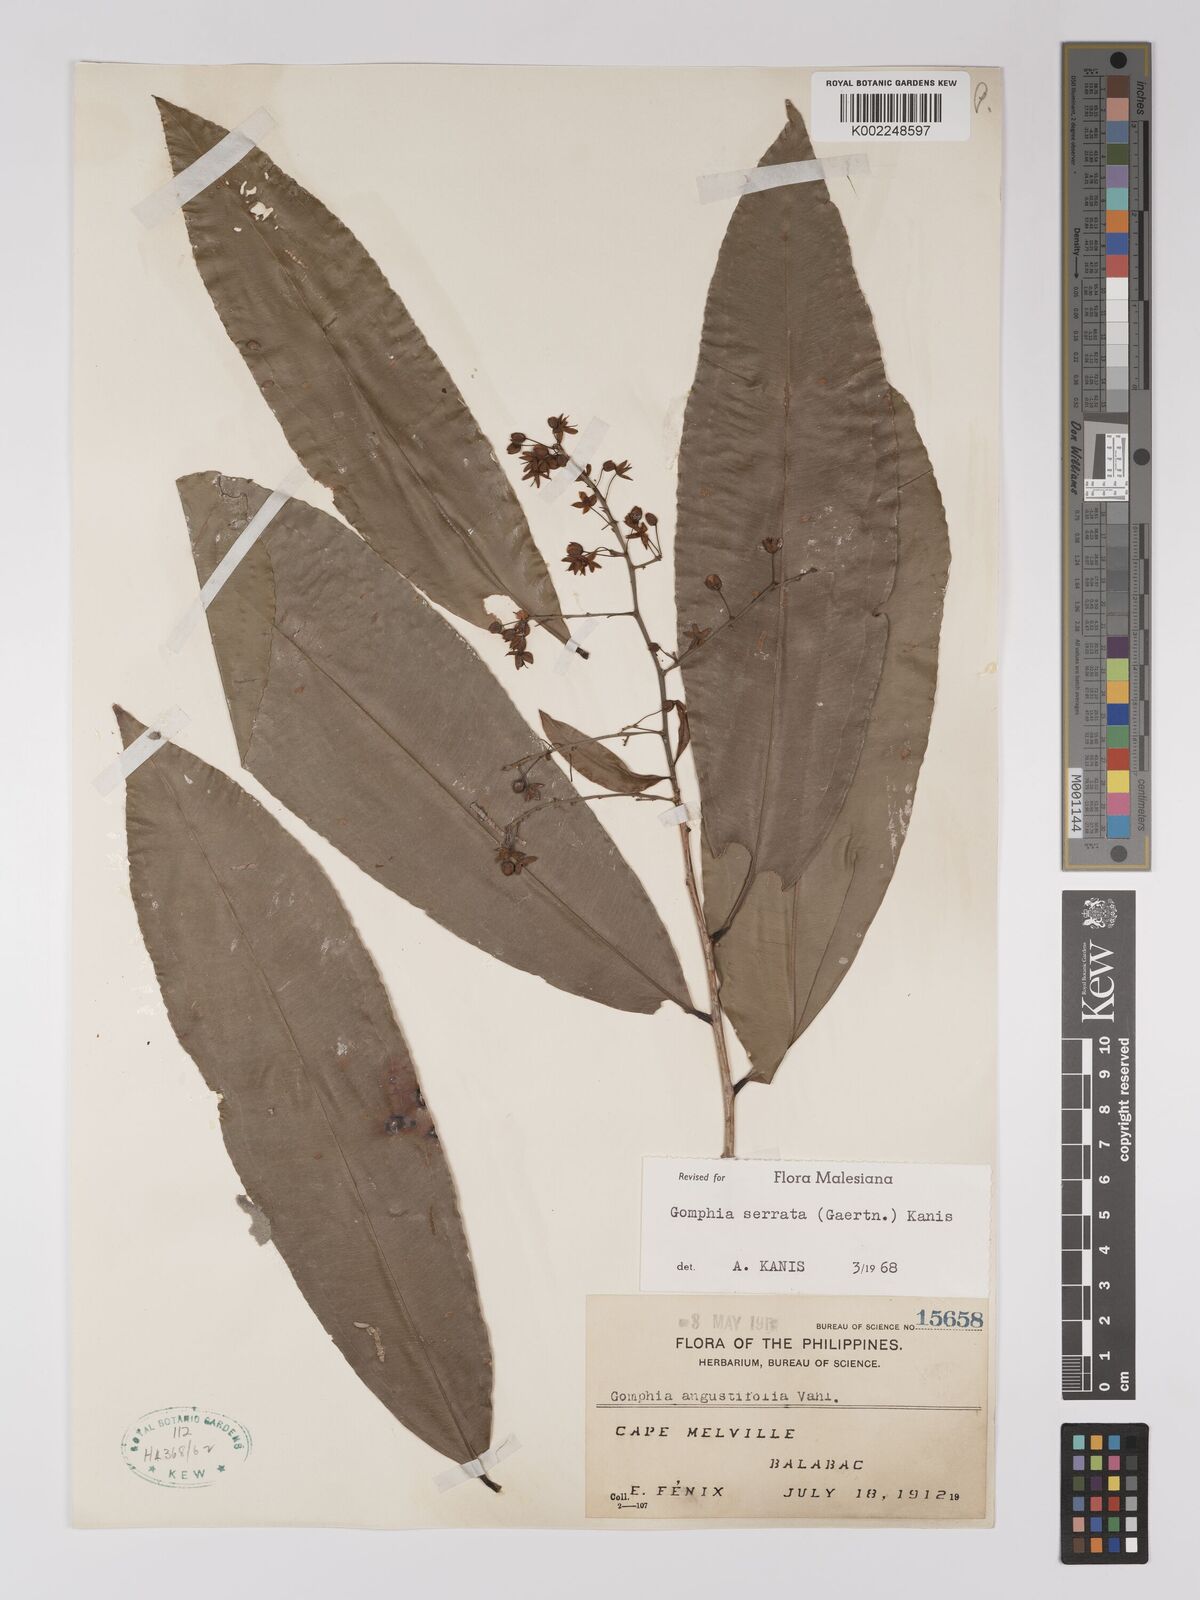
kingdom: Plantae
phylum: Tracheophyta
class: Magnoliopsida
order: Malpighiales
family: Ochnaceae
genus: Gomphia
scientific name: Gomphia serrata
